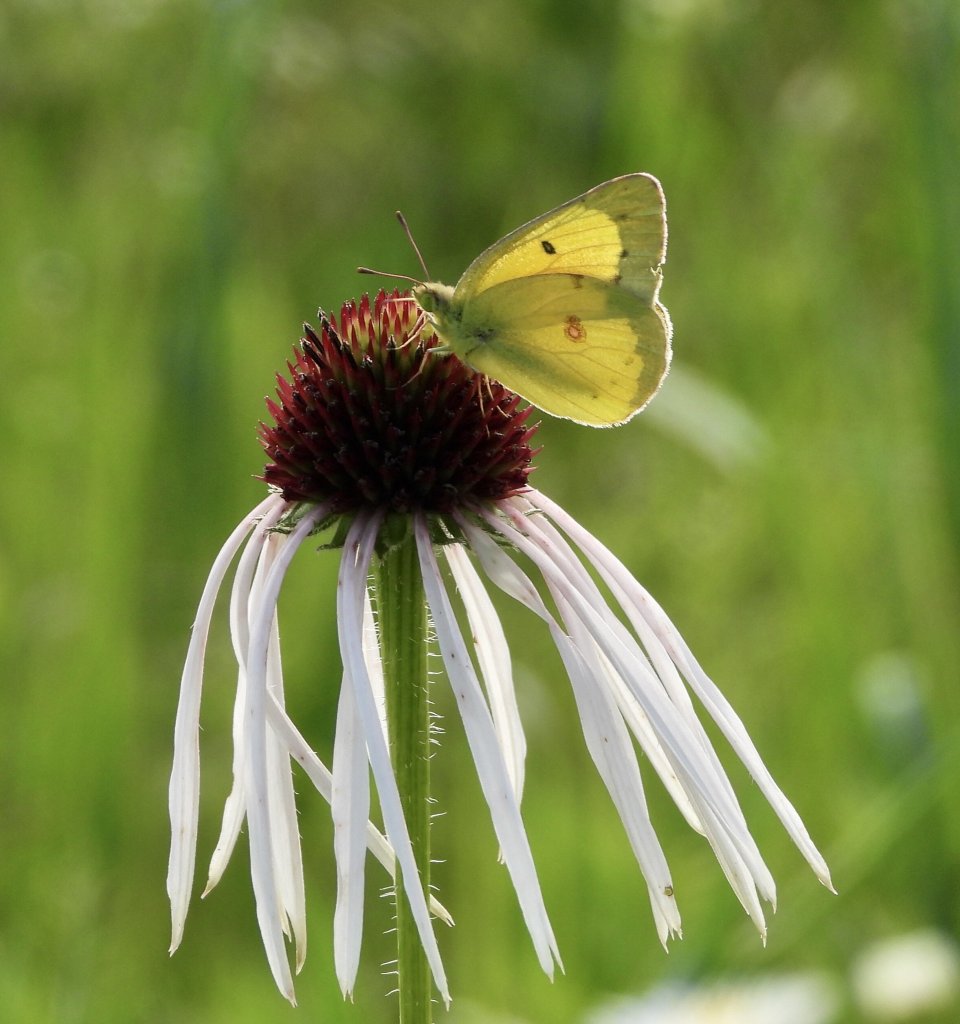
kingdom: Animalia
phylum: Arthropoda
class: Insecta
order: Lepidoptera
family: Pieridae
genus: Colias
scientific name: Colias philodice
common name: Clouded Sulphur
